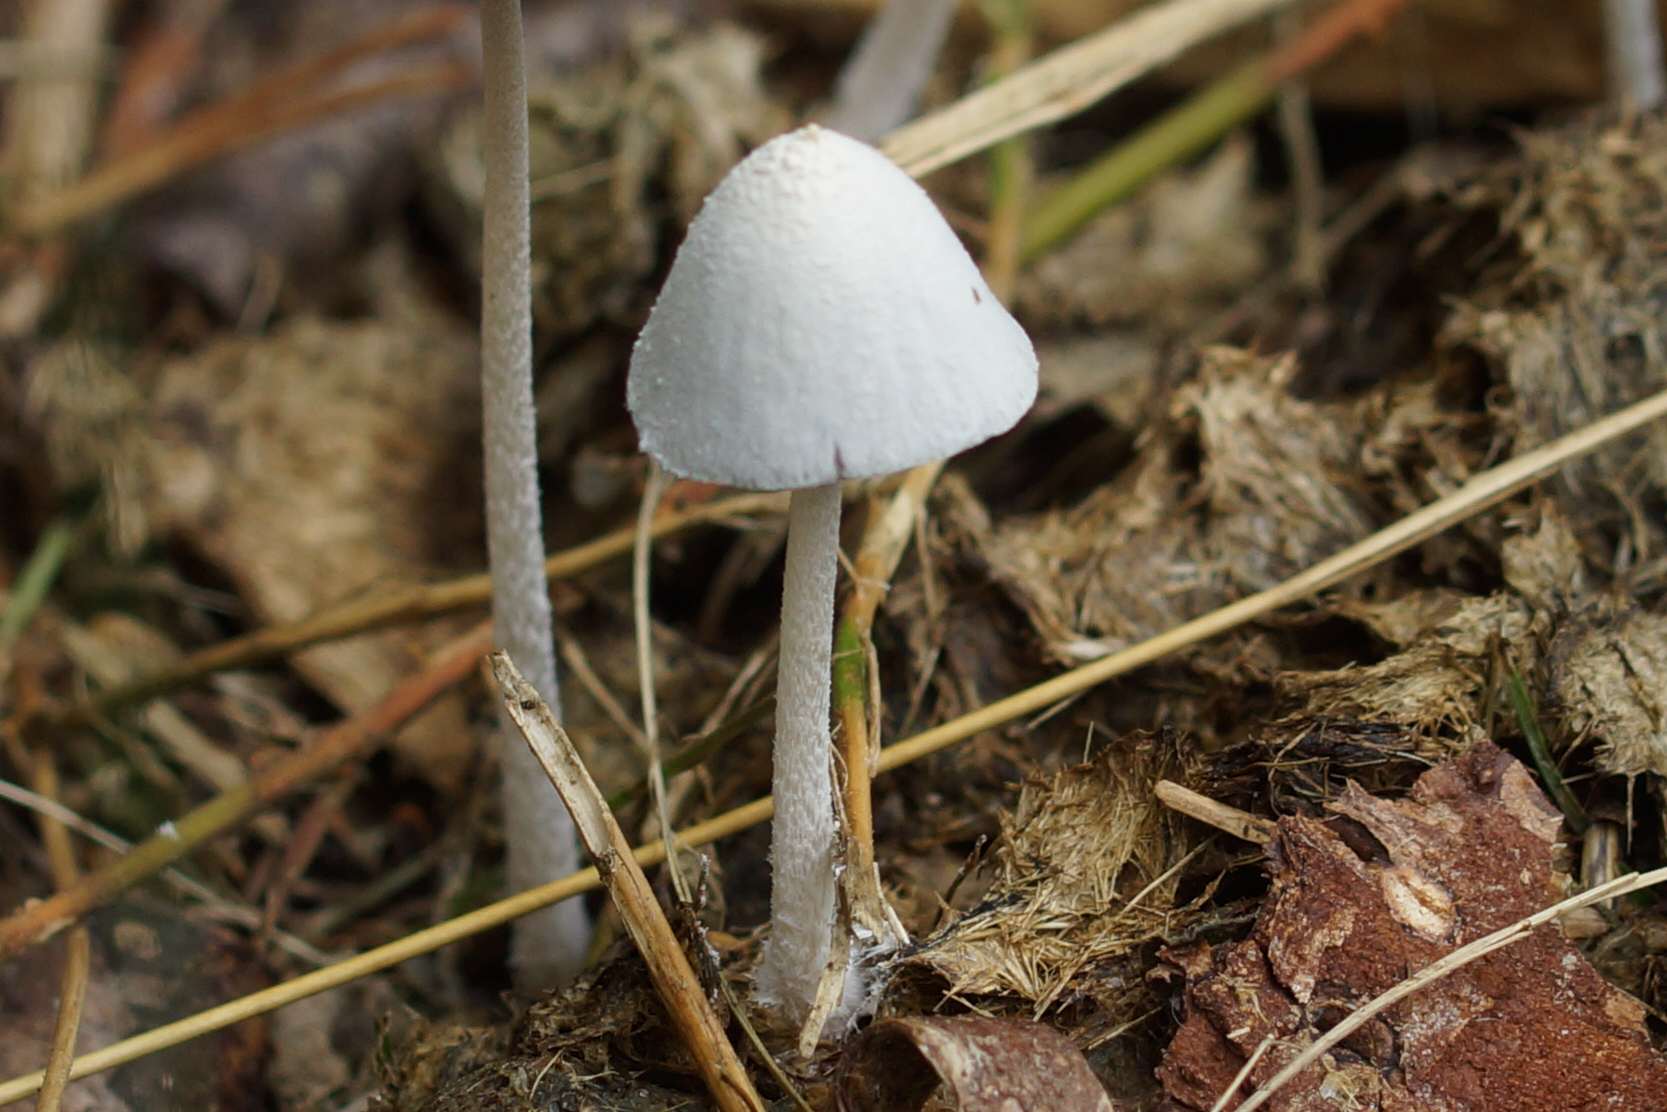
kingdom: Fungi
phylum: Basidiomycota
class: Agaricomycetes
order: Agaricales
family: Psathyrellaceae
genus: Coprinopsis
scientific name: Coprinopsis nivea
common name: snehvid blækhat
